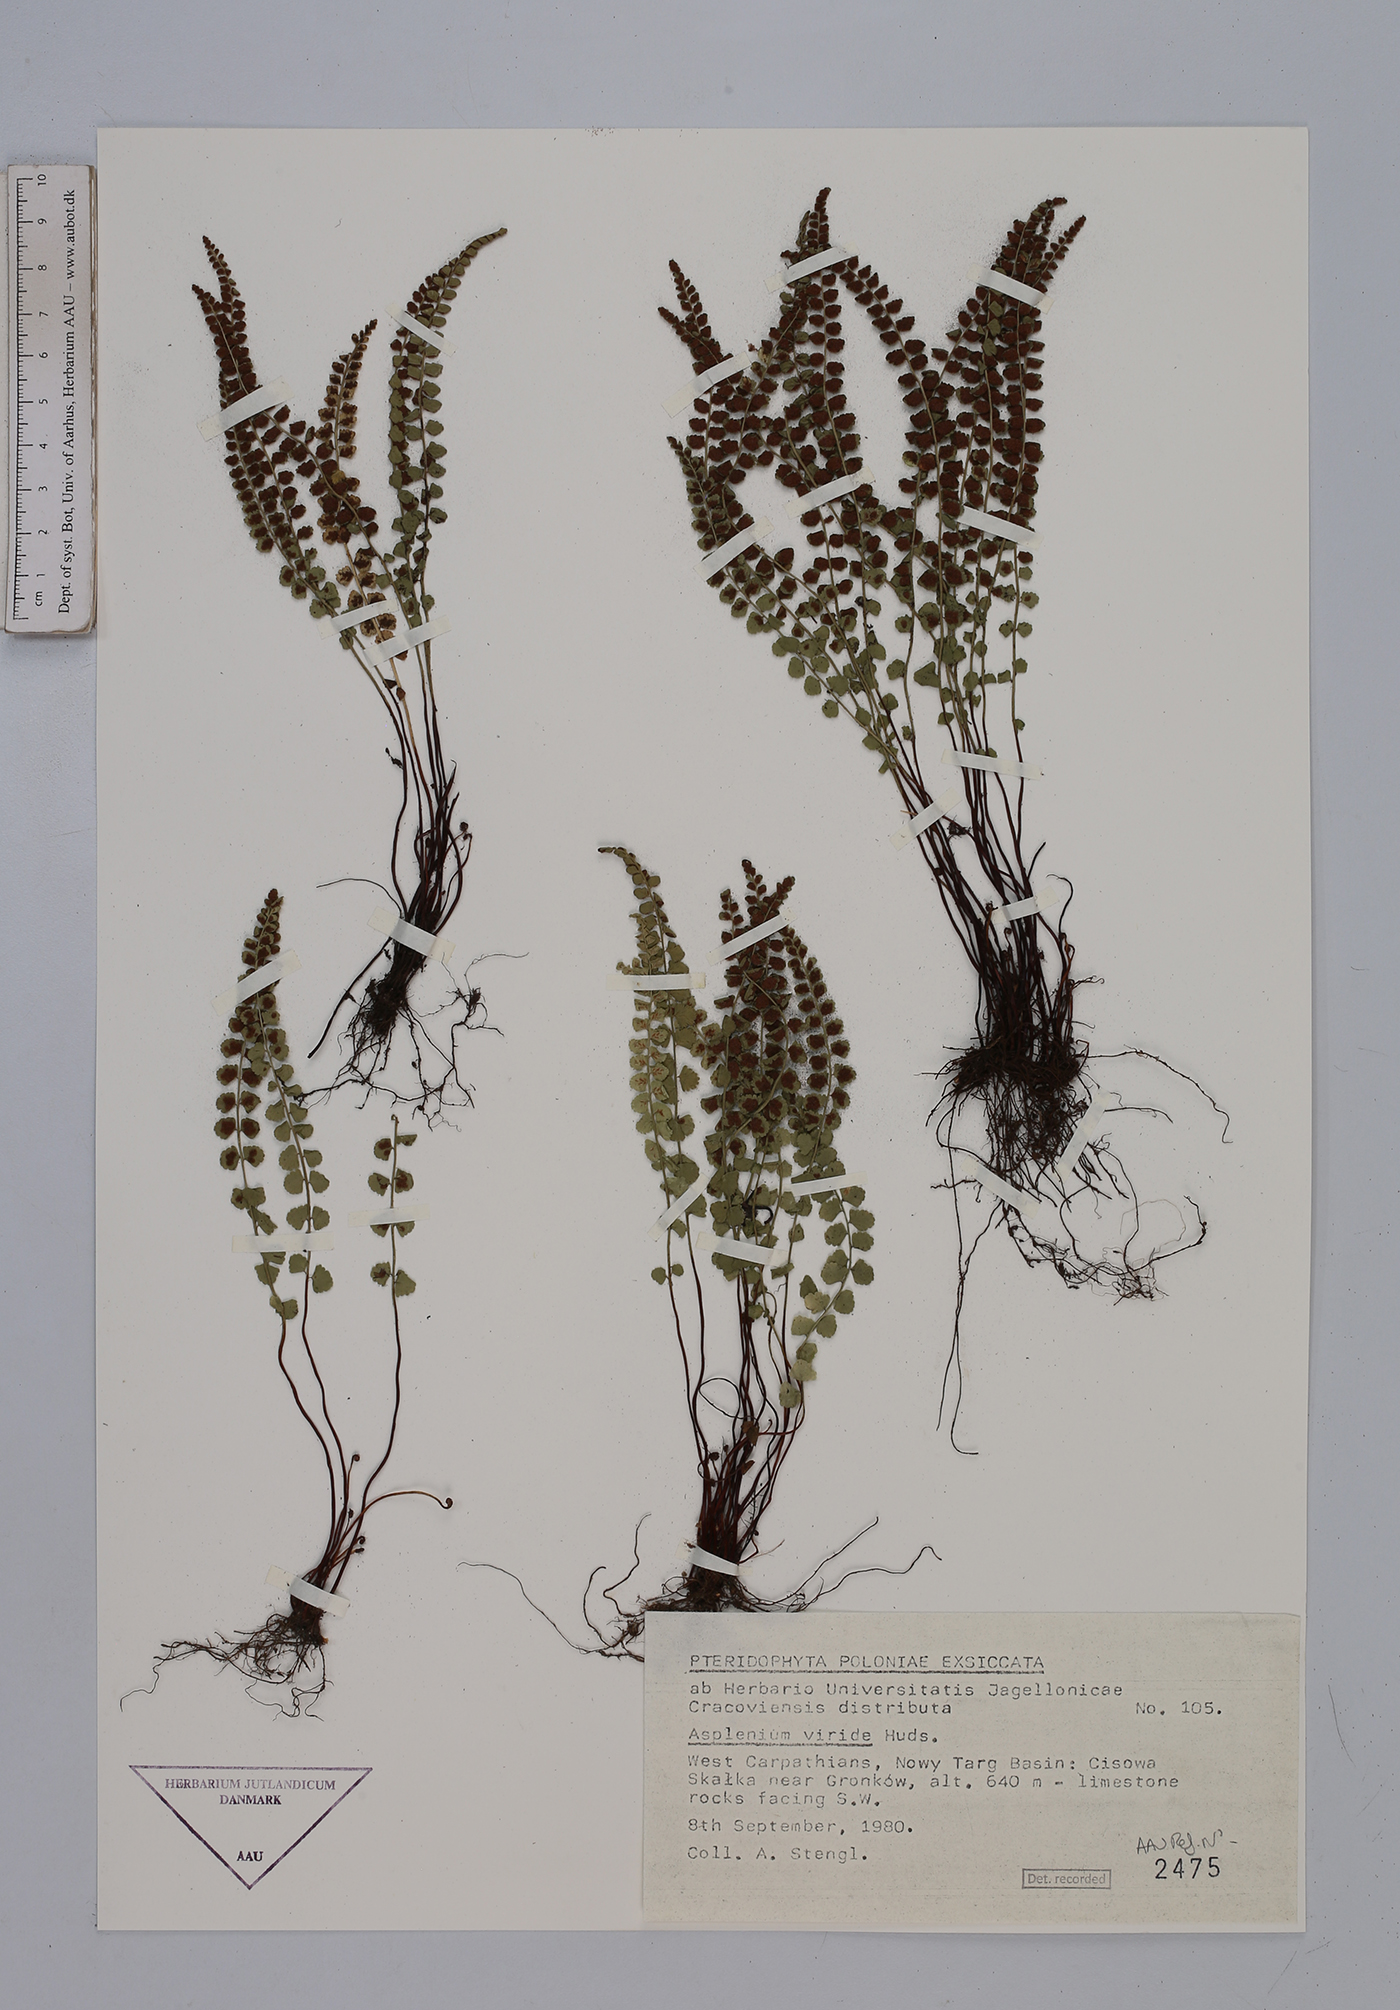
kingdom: Plantae
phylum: Tracheophyta
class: Polypodiopsida
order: Polypodiales
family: Aspleniaceae
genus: Asplenium
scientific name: Asplenium viride
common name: Green spleenwort
